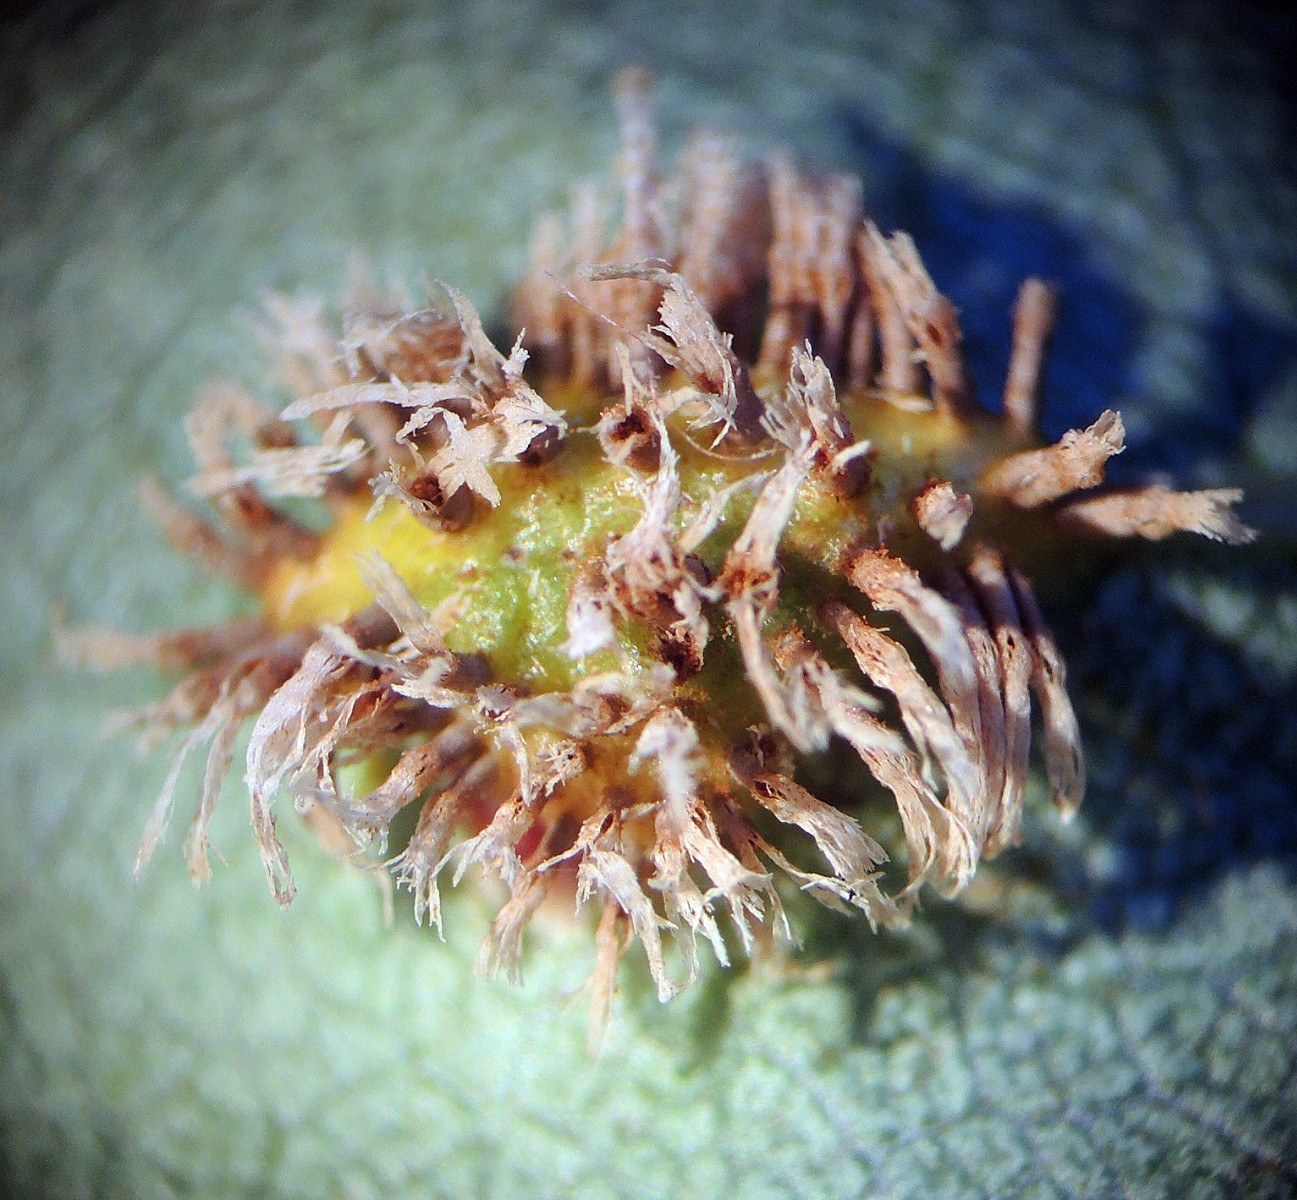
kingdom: Fungi
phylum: Basidiomycota
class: Pucciniomycetes
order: Pucciniales
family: Gymnosporangiaceae
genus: Gymnosporangium
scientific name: Gymnosporangium confusum
